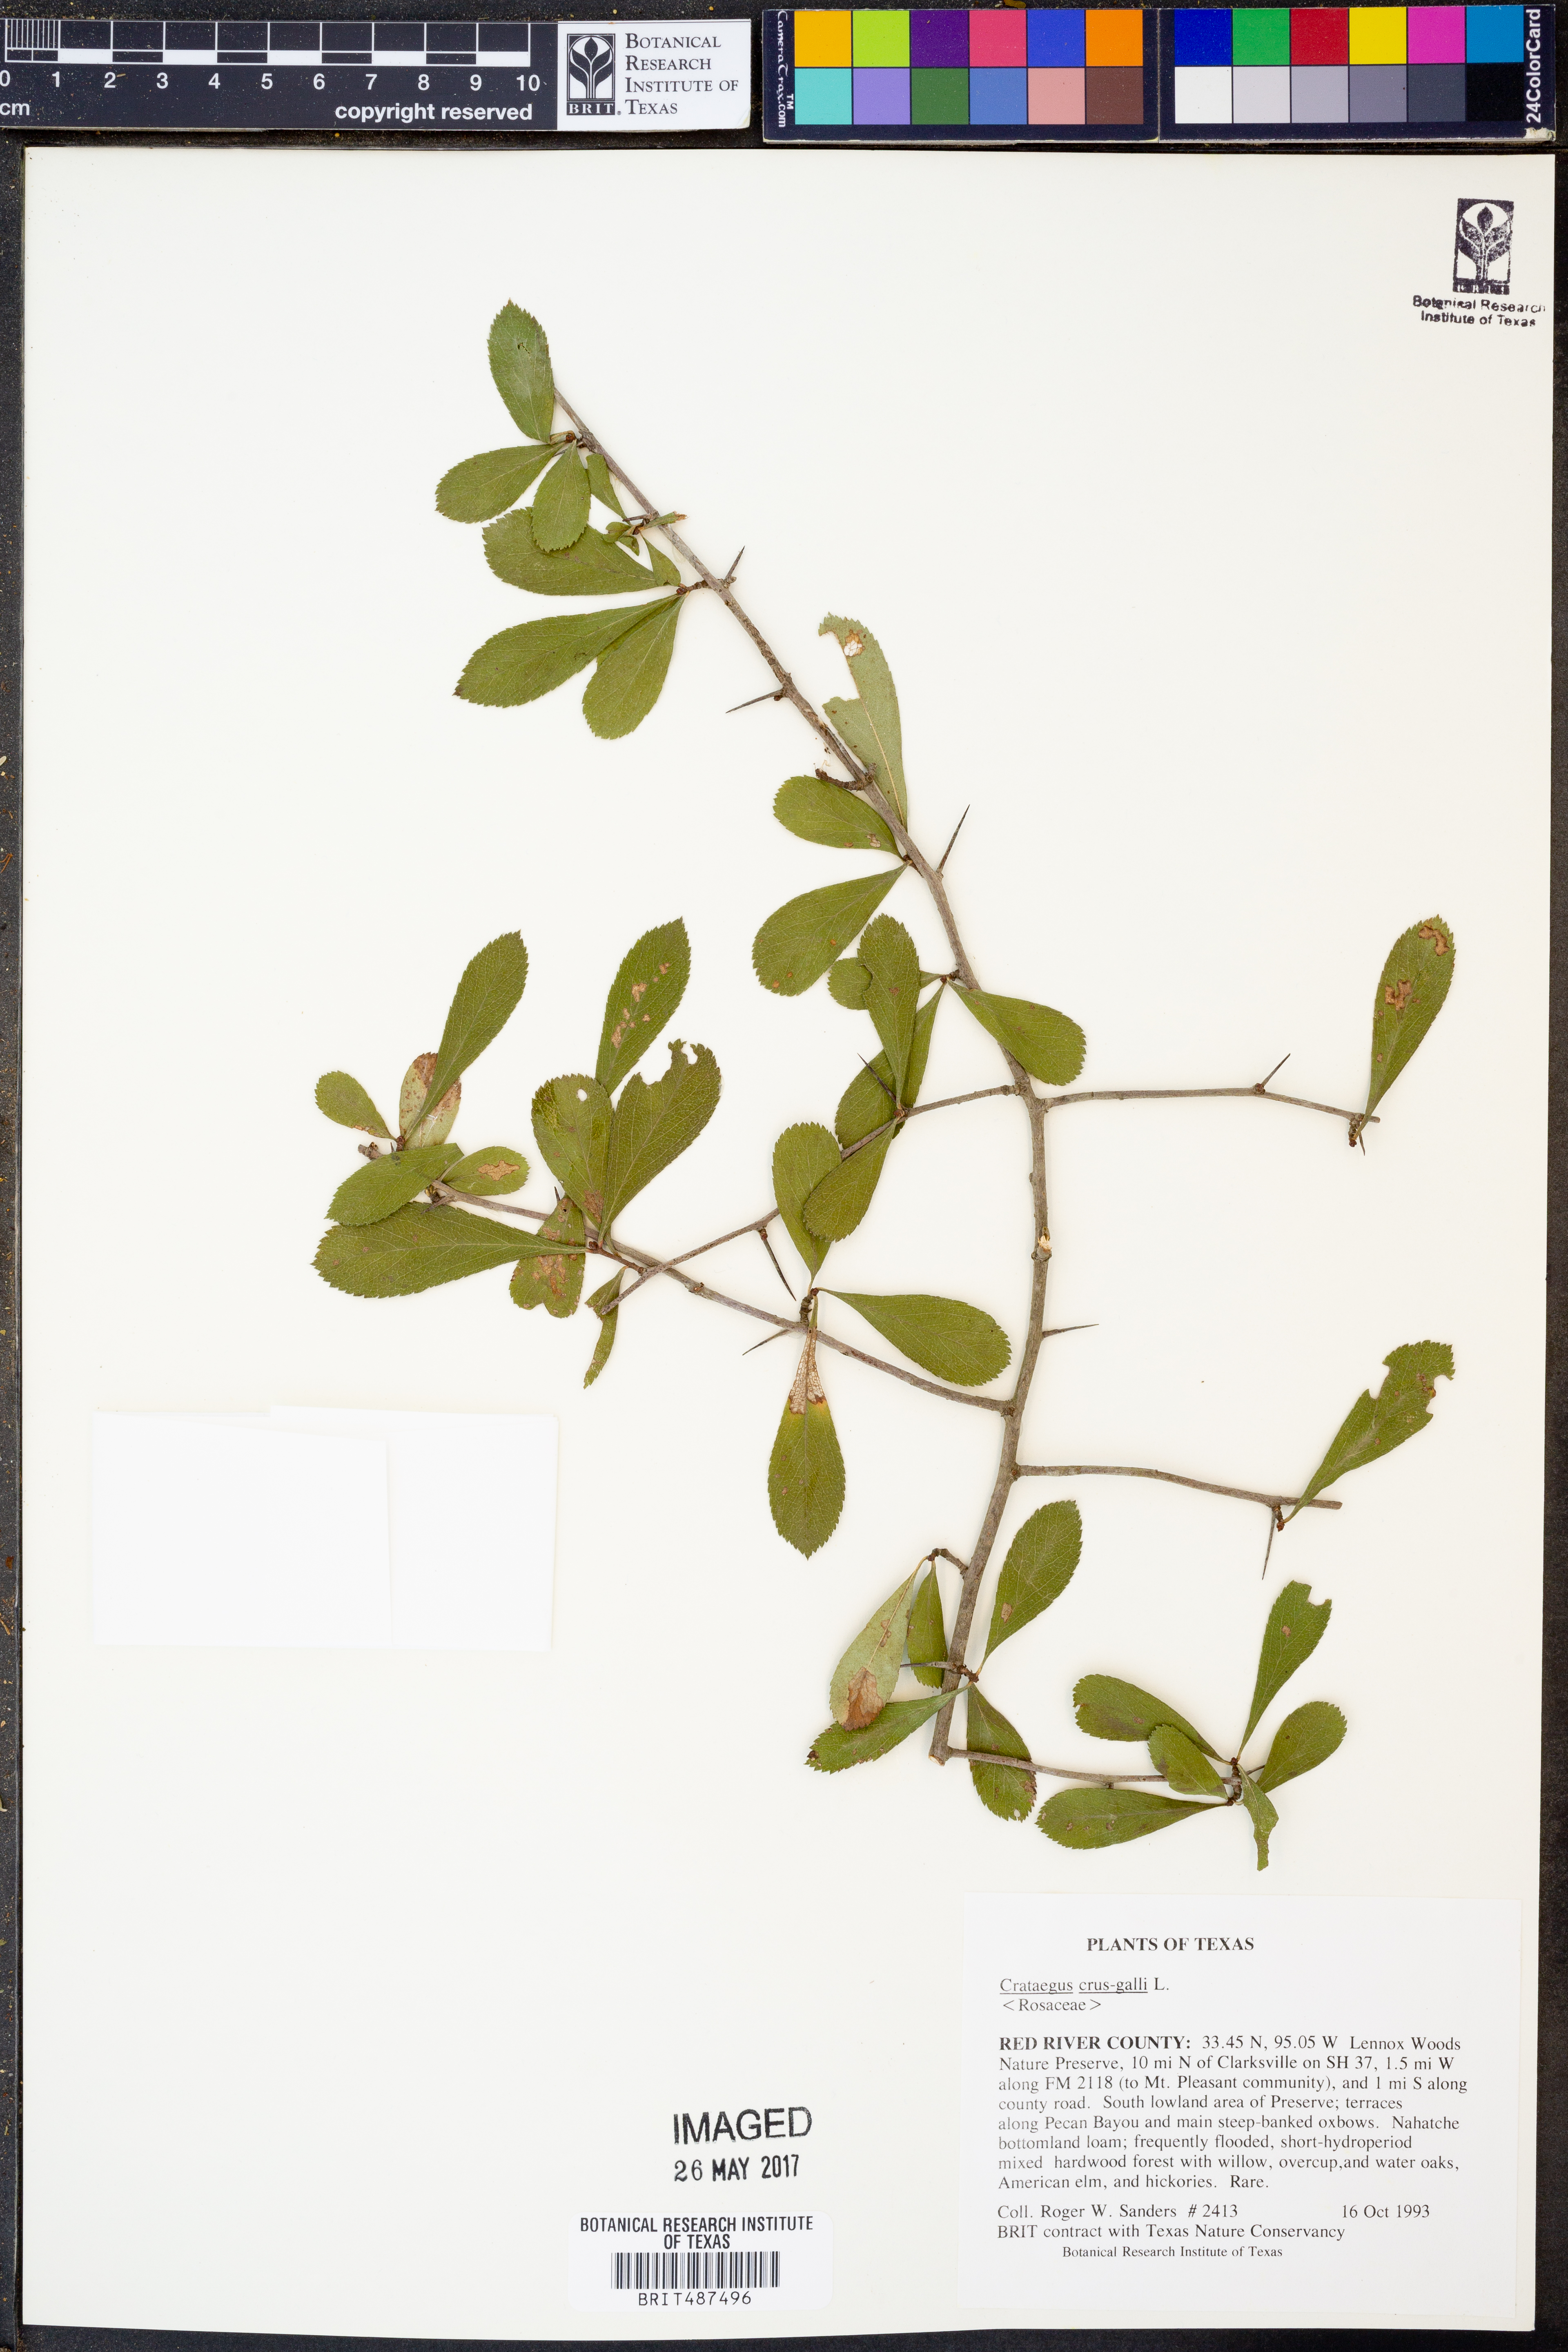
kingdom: Plantae
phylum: Tracheophyta
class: Magnoliopsida
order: Rosales
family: Rosaceae
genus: Crataegus
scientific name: Crataegus crus-galli
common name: Cockspurthorn
